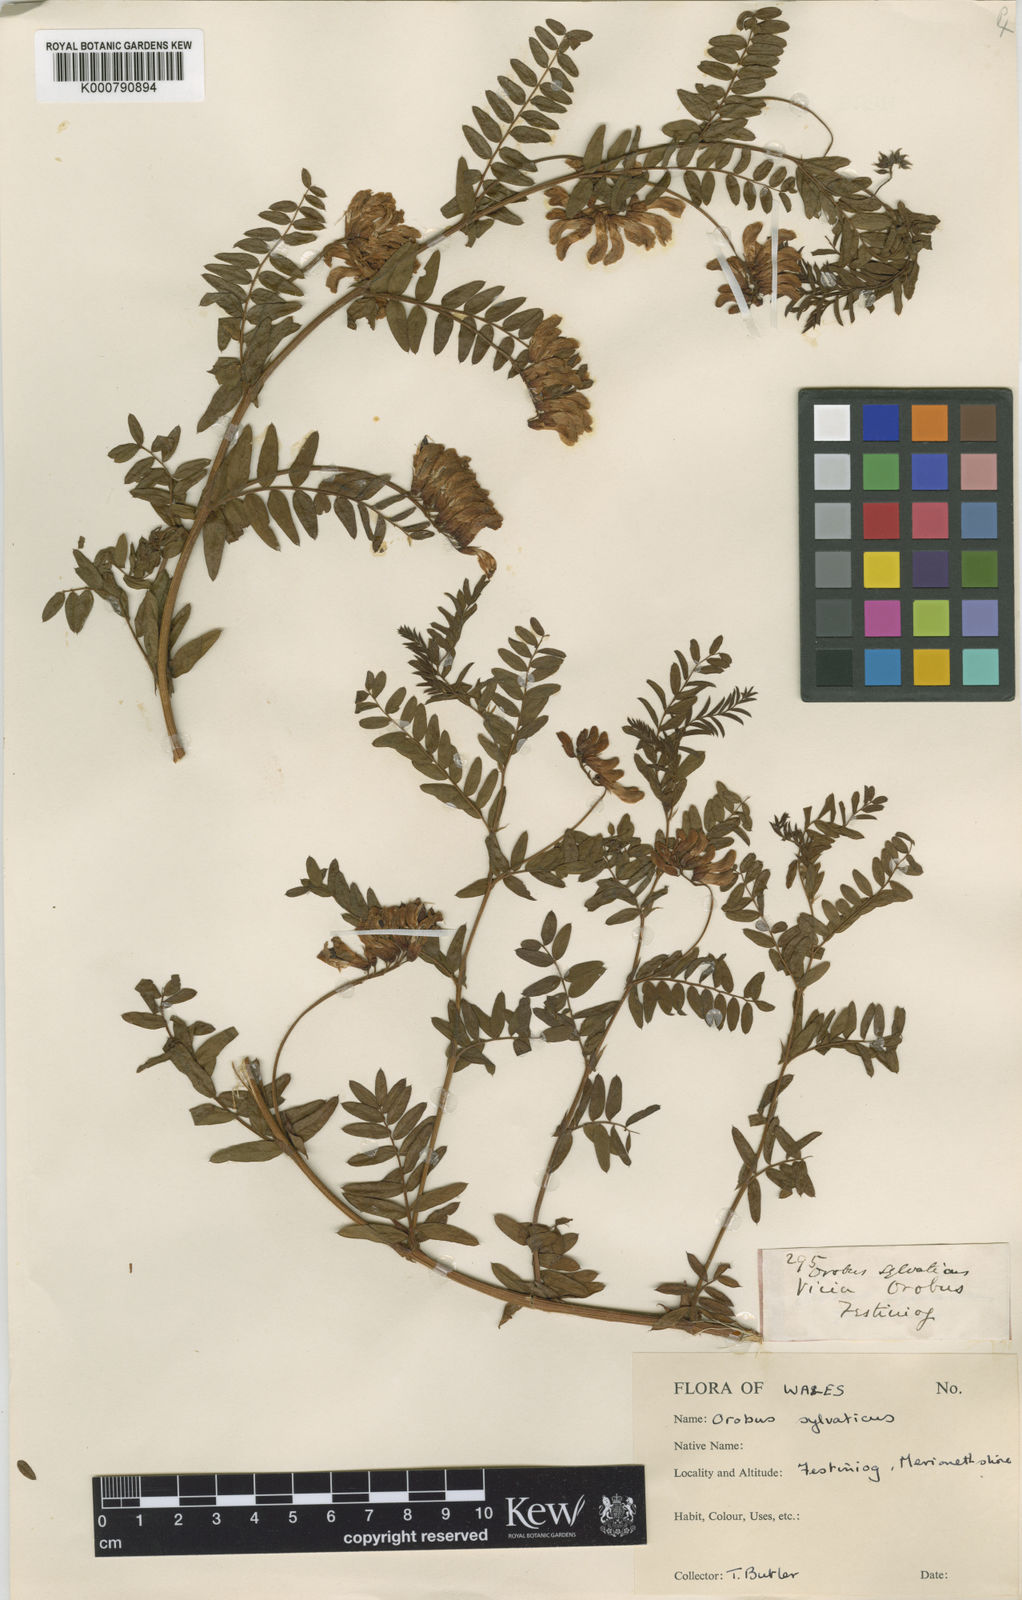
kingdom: Plantae
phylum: Tracheophyta
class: Magnoliopsida
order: Fabales
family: Fabaceae
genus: Vicia
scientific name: Vicia orobus
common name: Wood bitter-vetch
